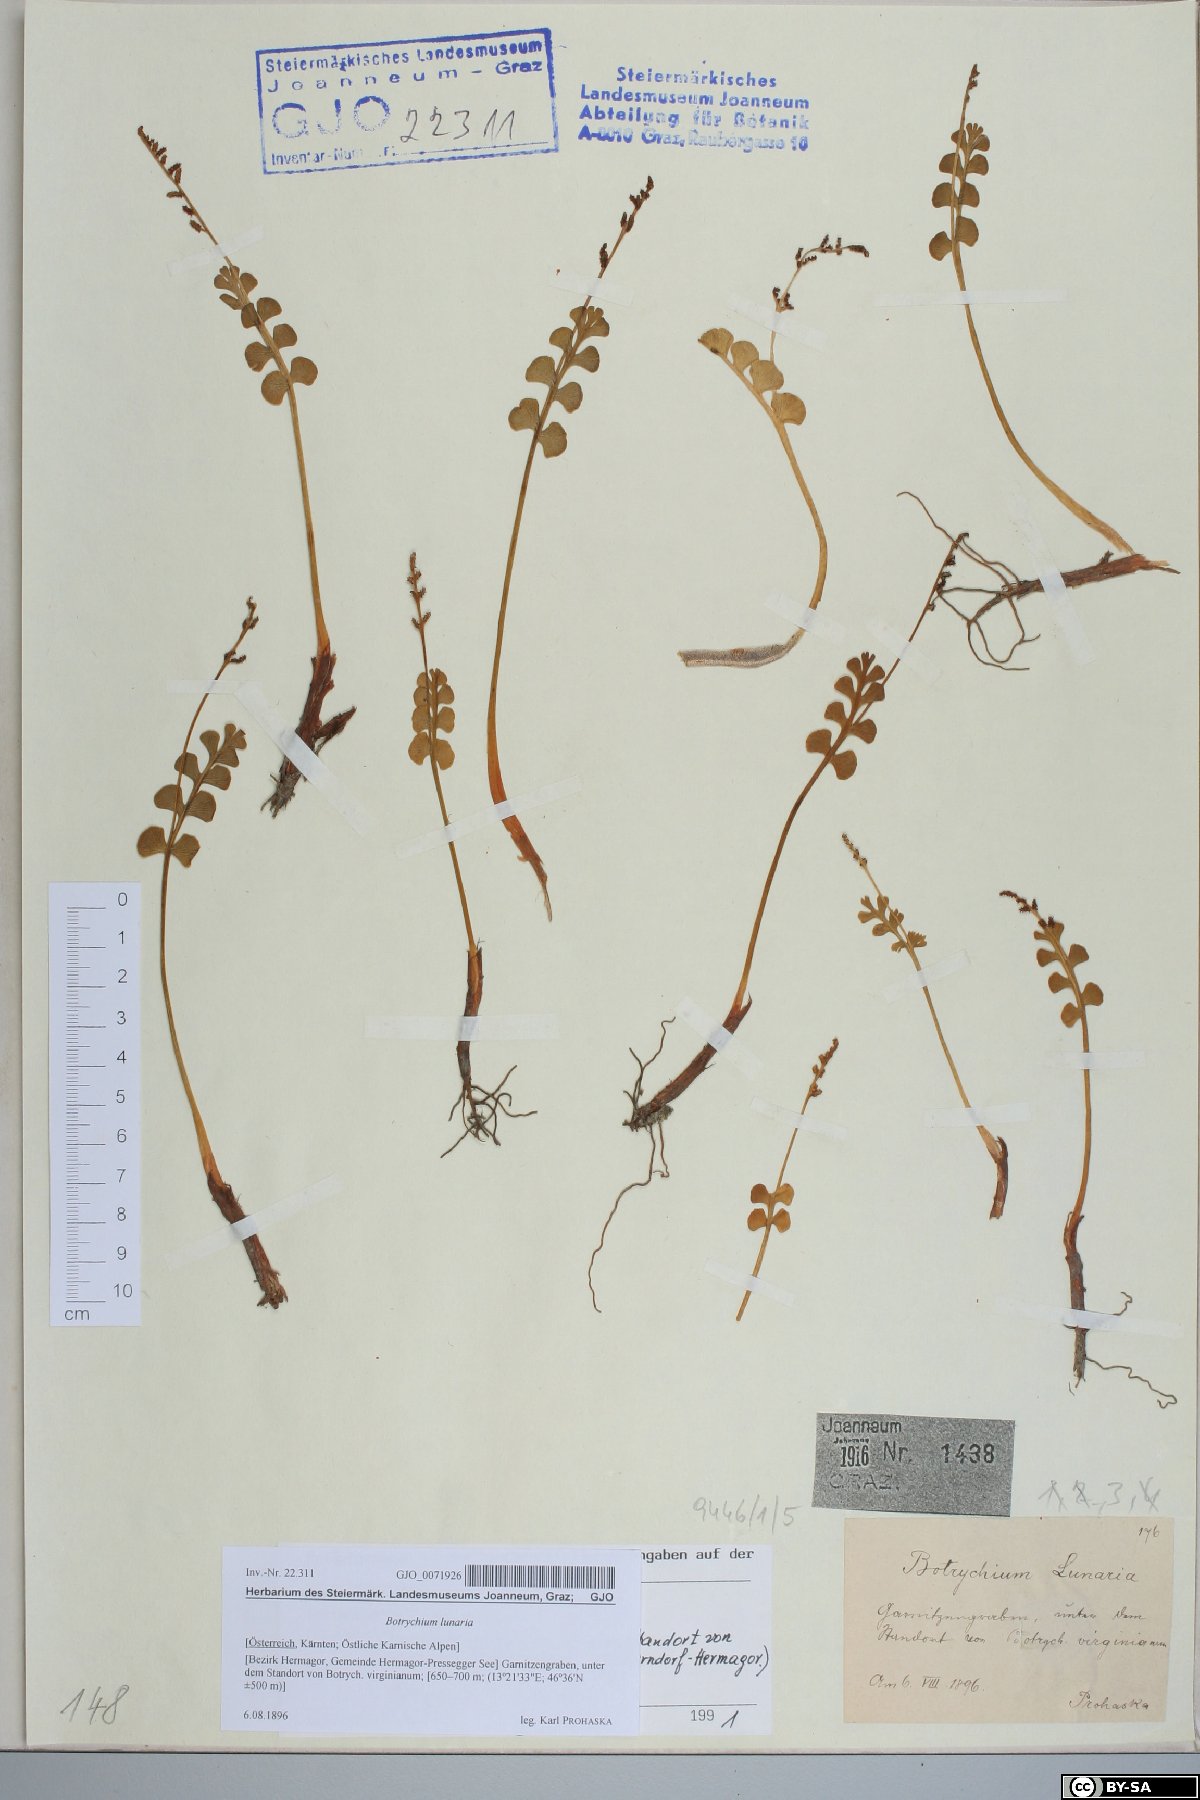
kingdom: Plantae
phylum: Tracheophyta
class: Polypodiopsida
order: Ophioglossales
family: Ophioglossaceae
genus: Botrychium
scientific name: Botrychium lunaria
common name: Moonwort
